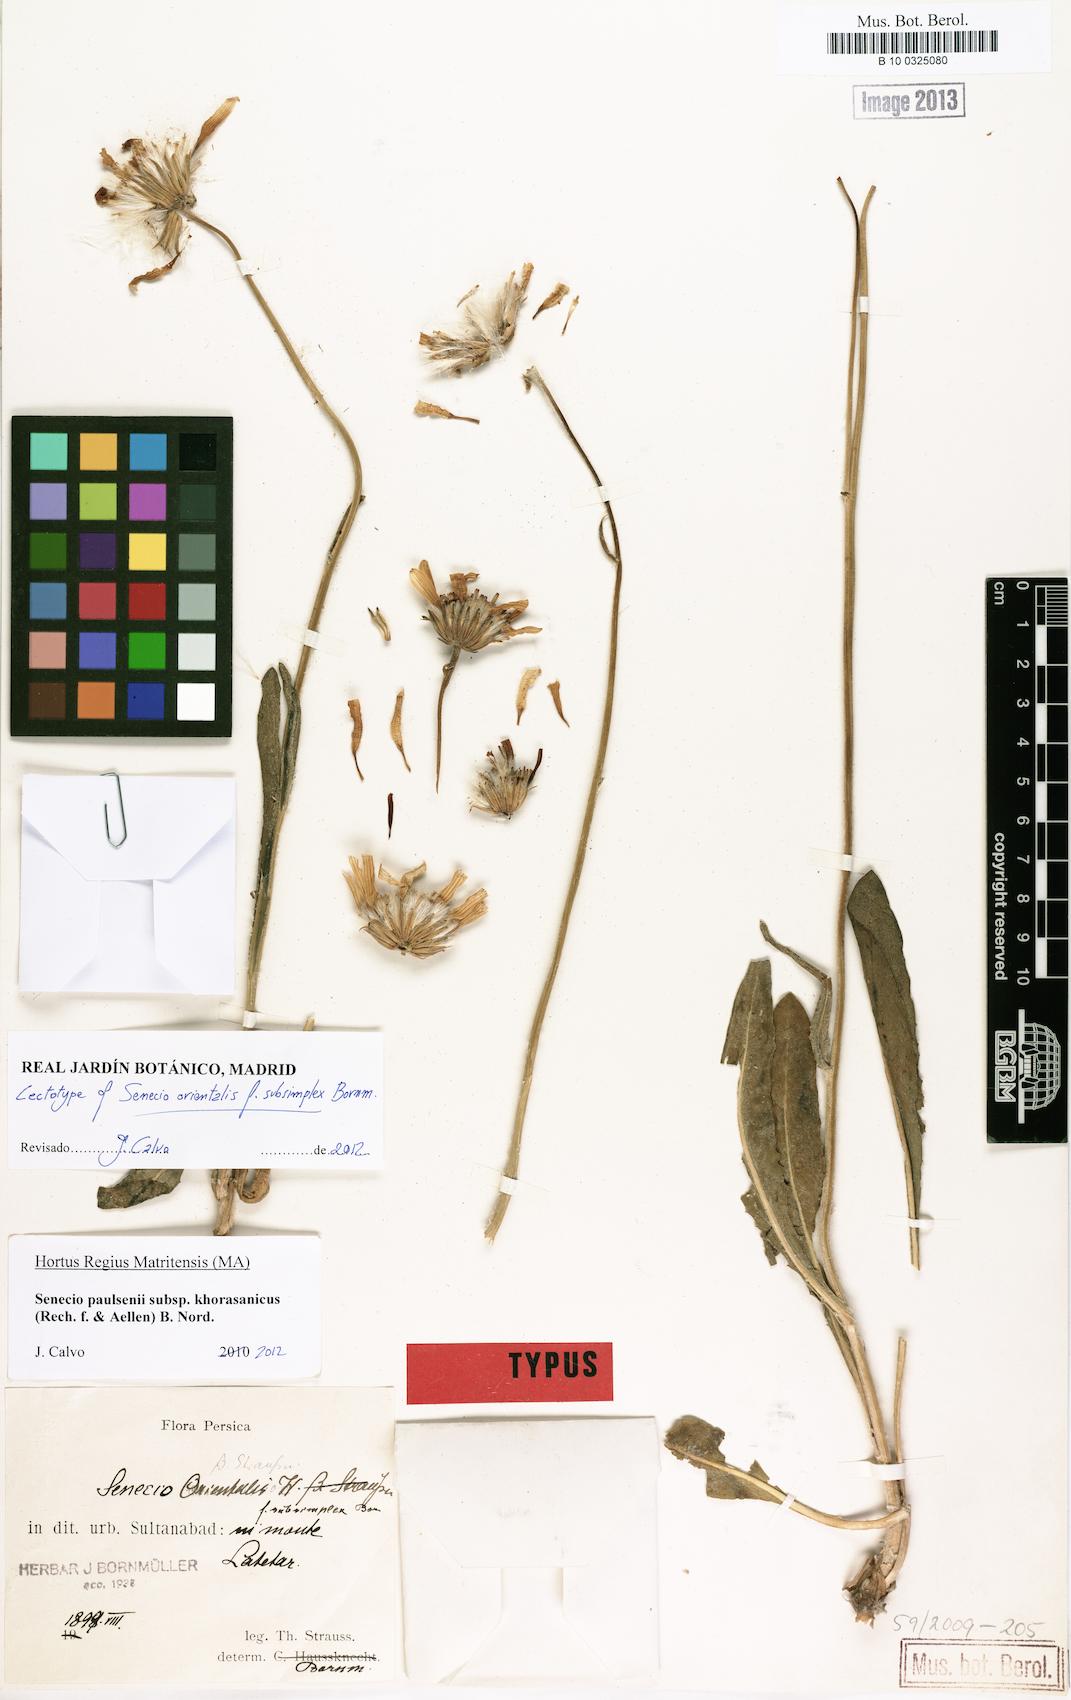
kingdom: Plantae
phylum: Tracheophyta
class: Magnoliopsida
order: Asterales
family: Asteraceae
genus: Senecio
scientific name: Senecio paulsenii
